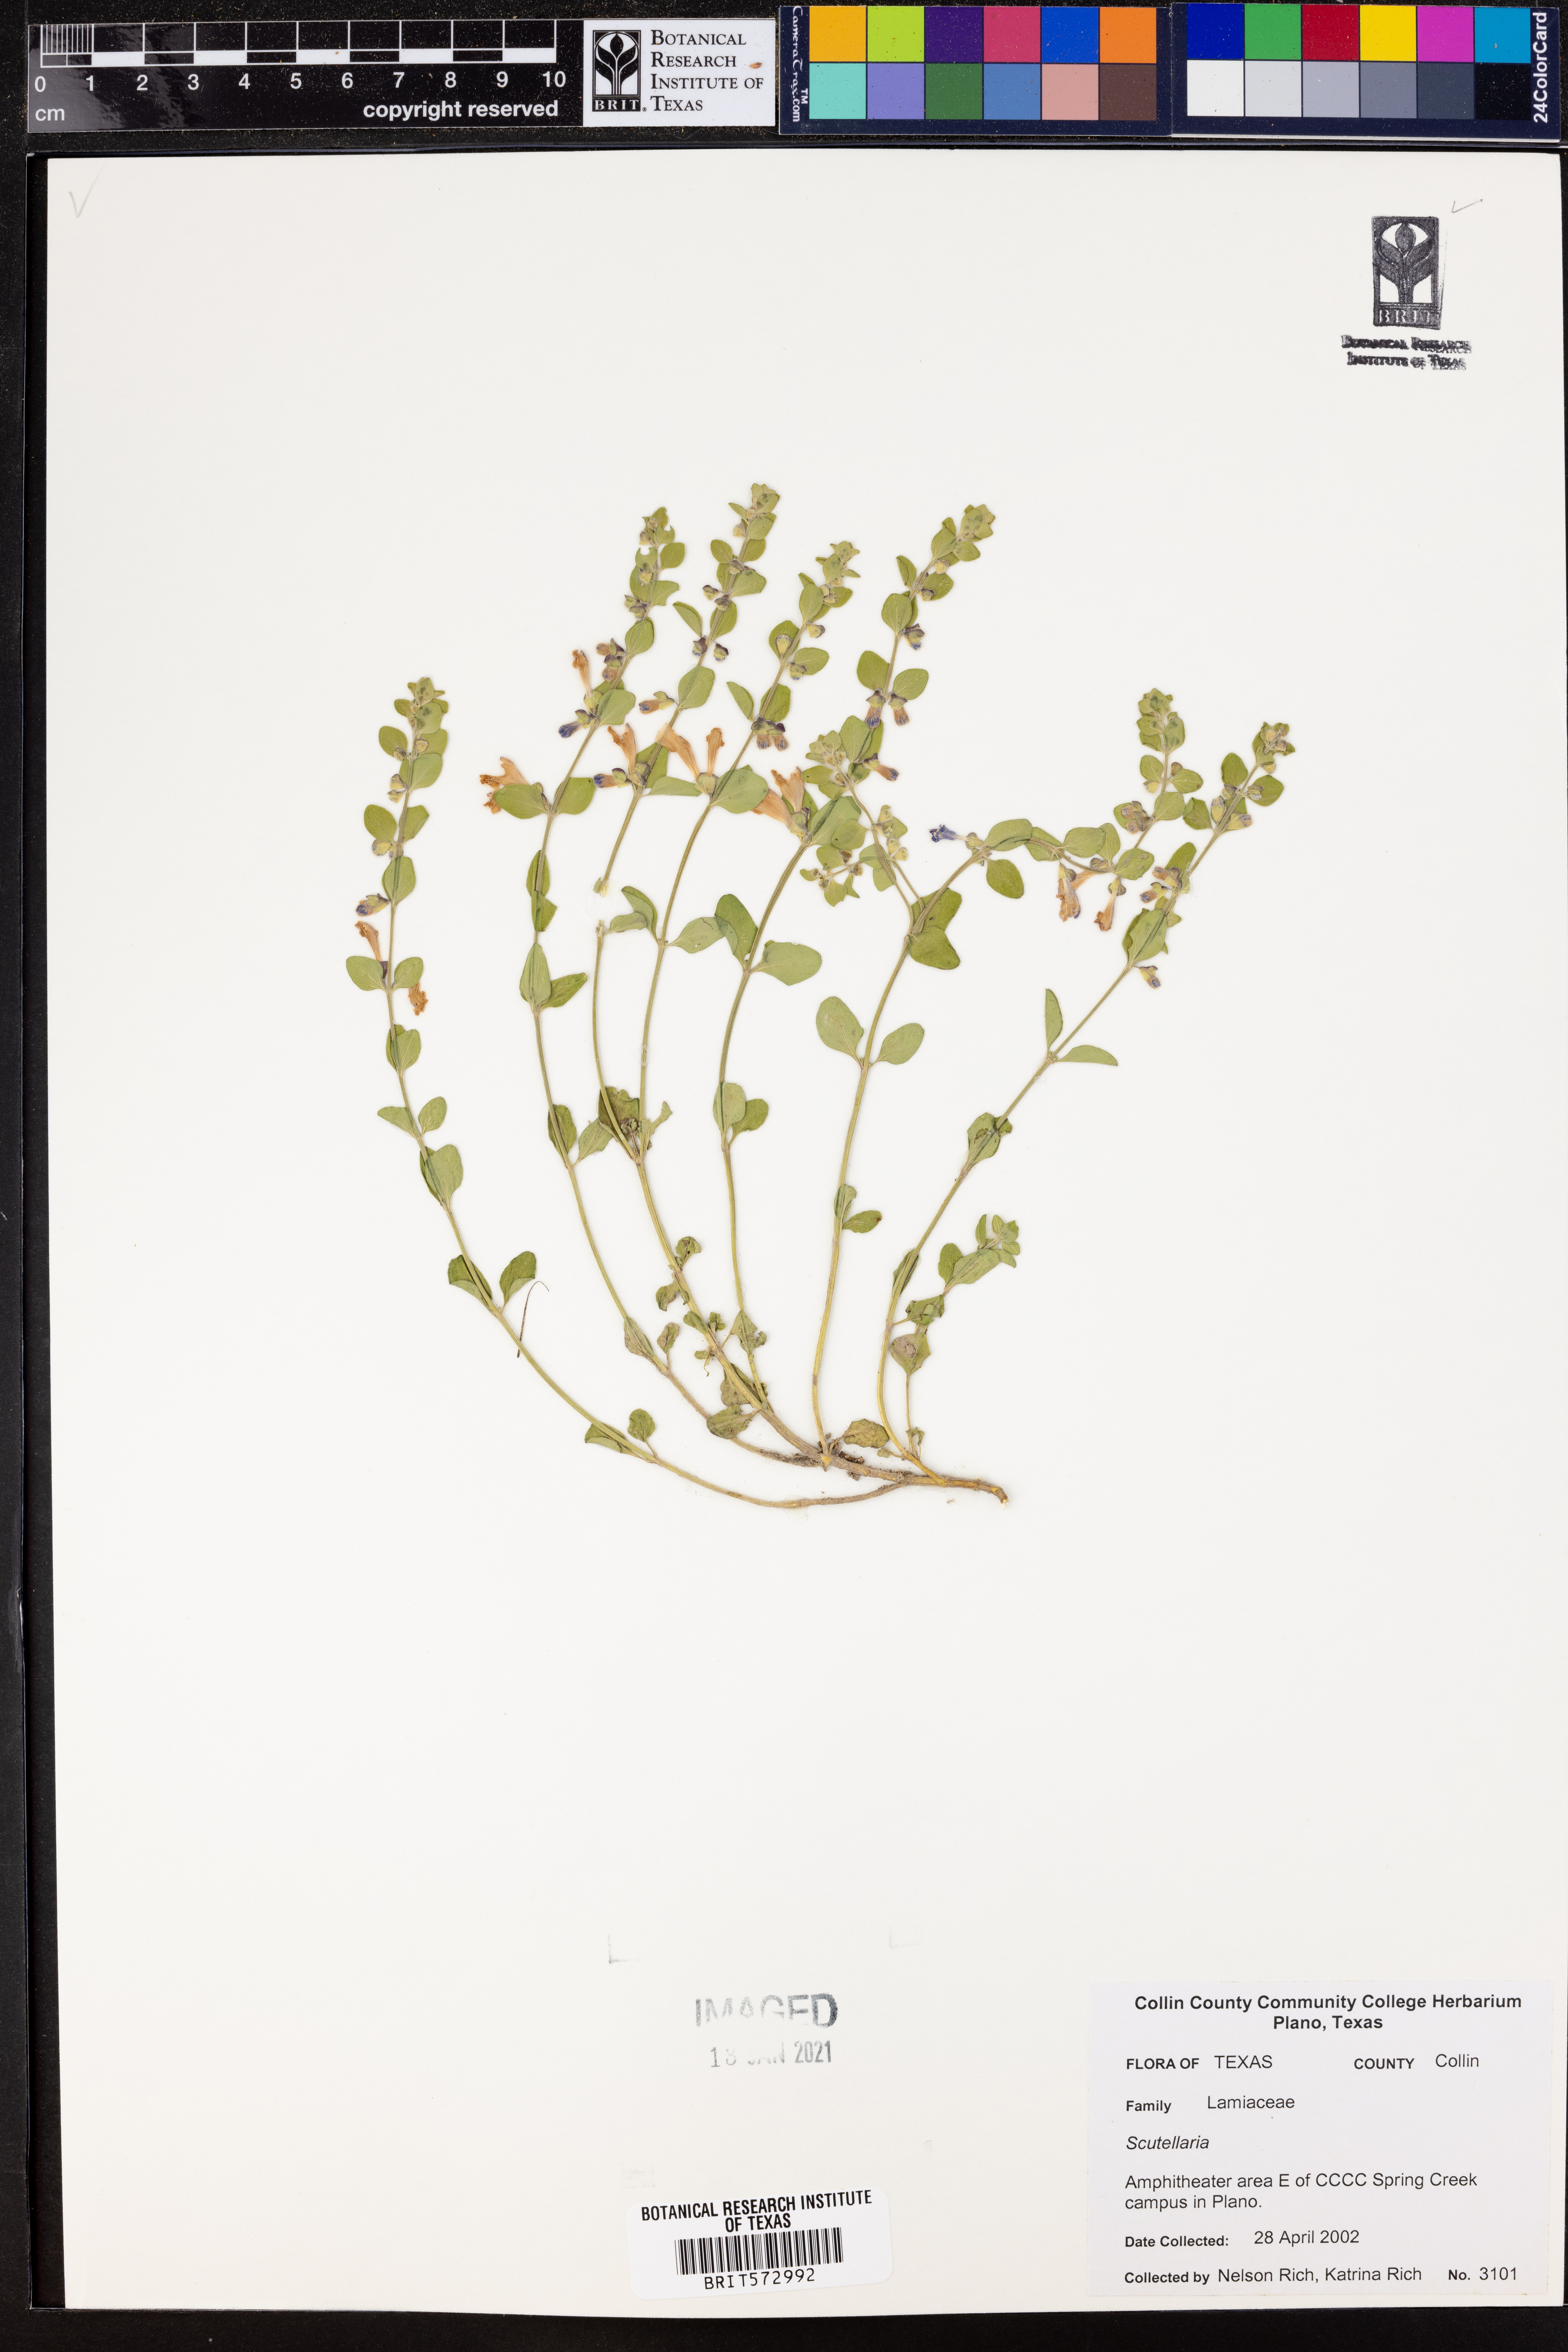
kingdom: Plantae
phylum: Tracheophyta
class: Magnoliopsida
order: Lamiales
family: Lamiaceae
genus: Scutellaria
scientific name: Scutellaria
